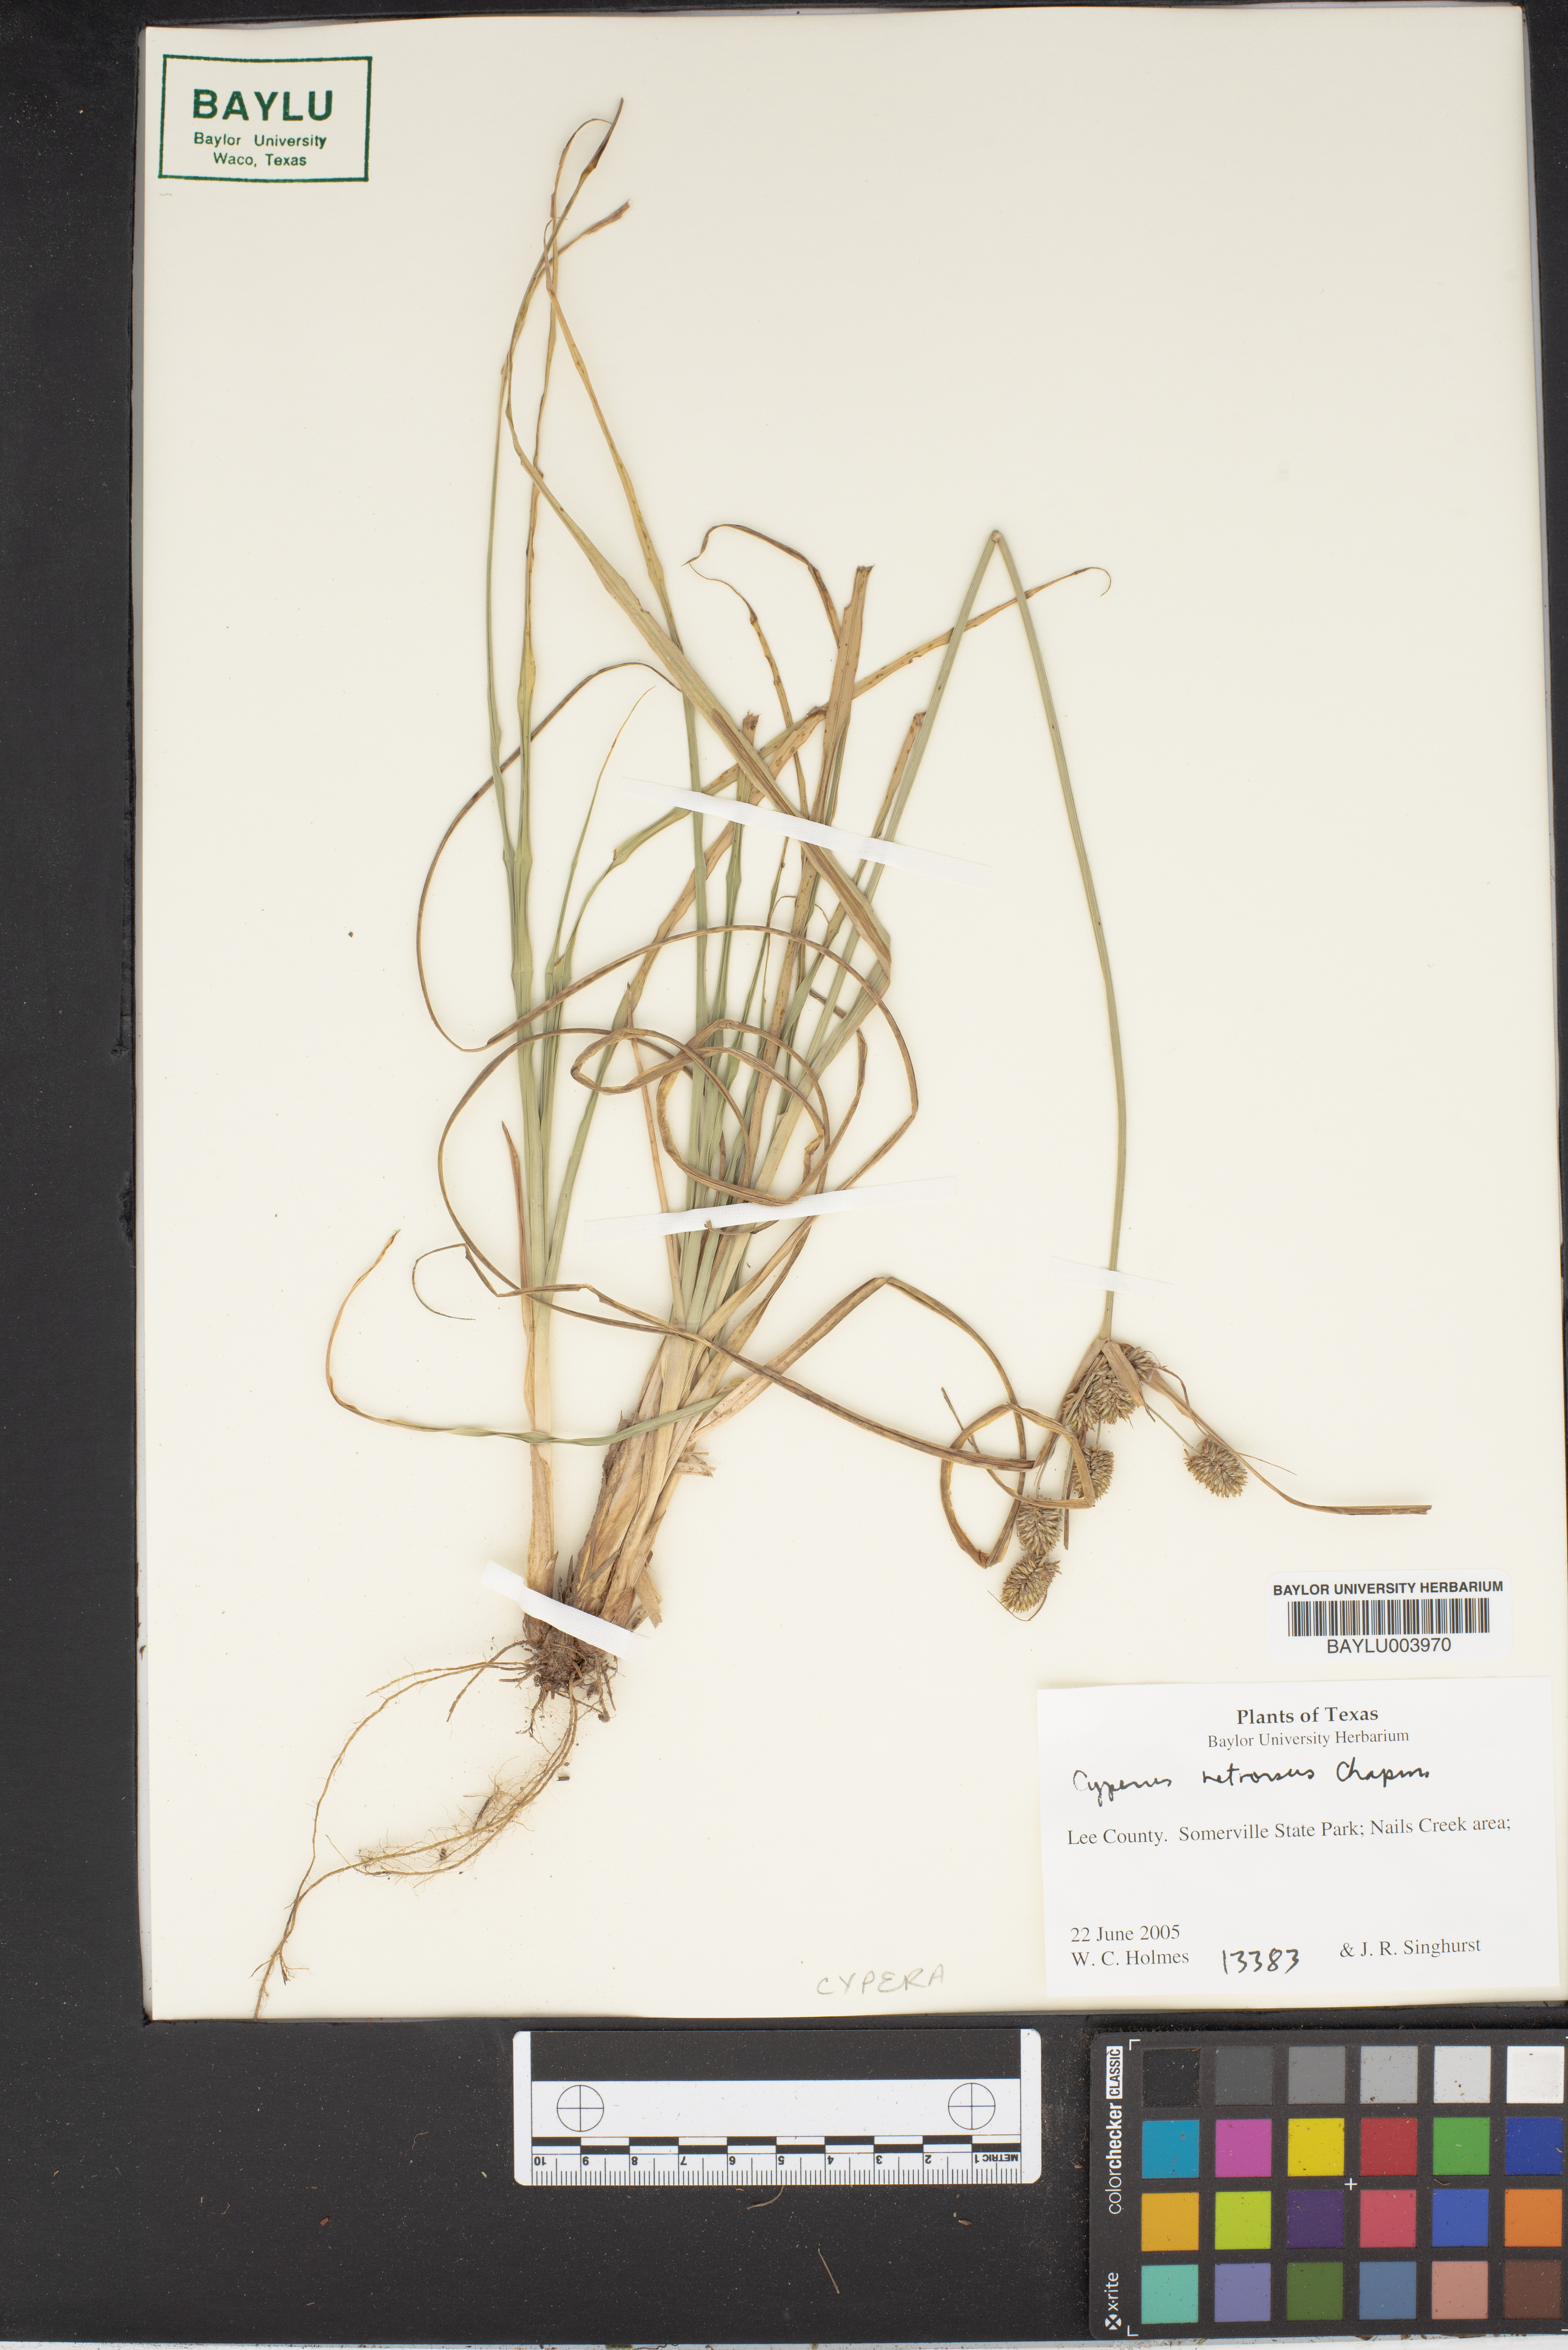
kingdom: Plantae
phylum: Tracheophyta
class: Liliopsida
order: Poales
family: Cyperaceae
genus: Cyperus
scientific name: Cyperus retrorsus
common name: Pinebarren flat sedge
